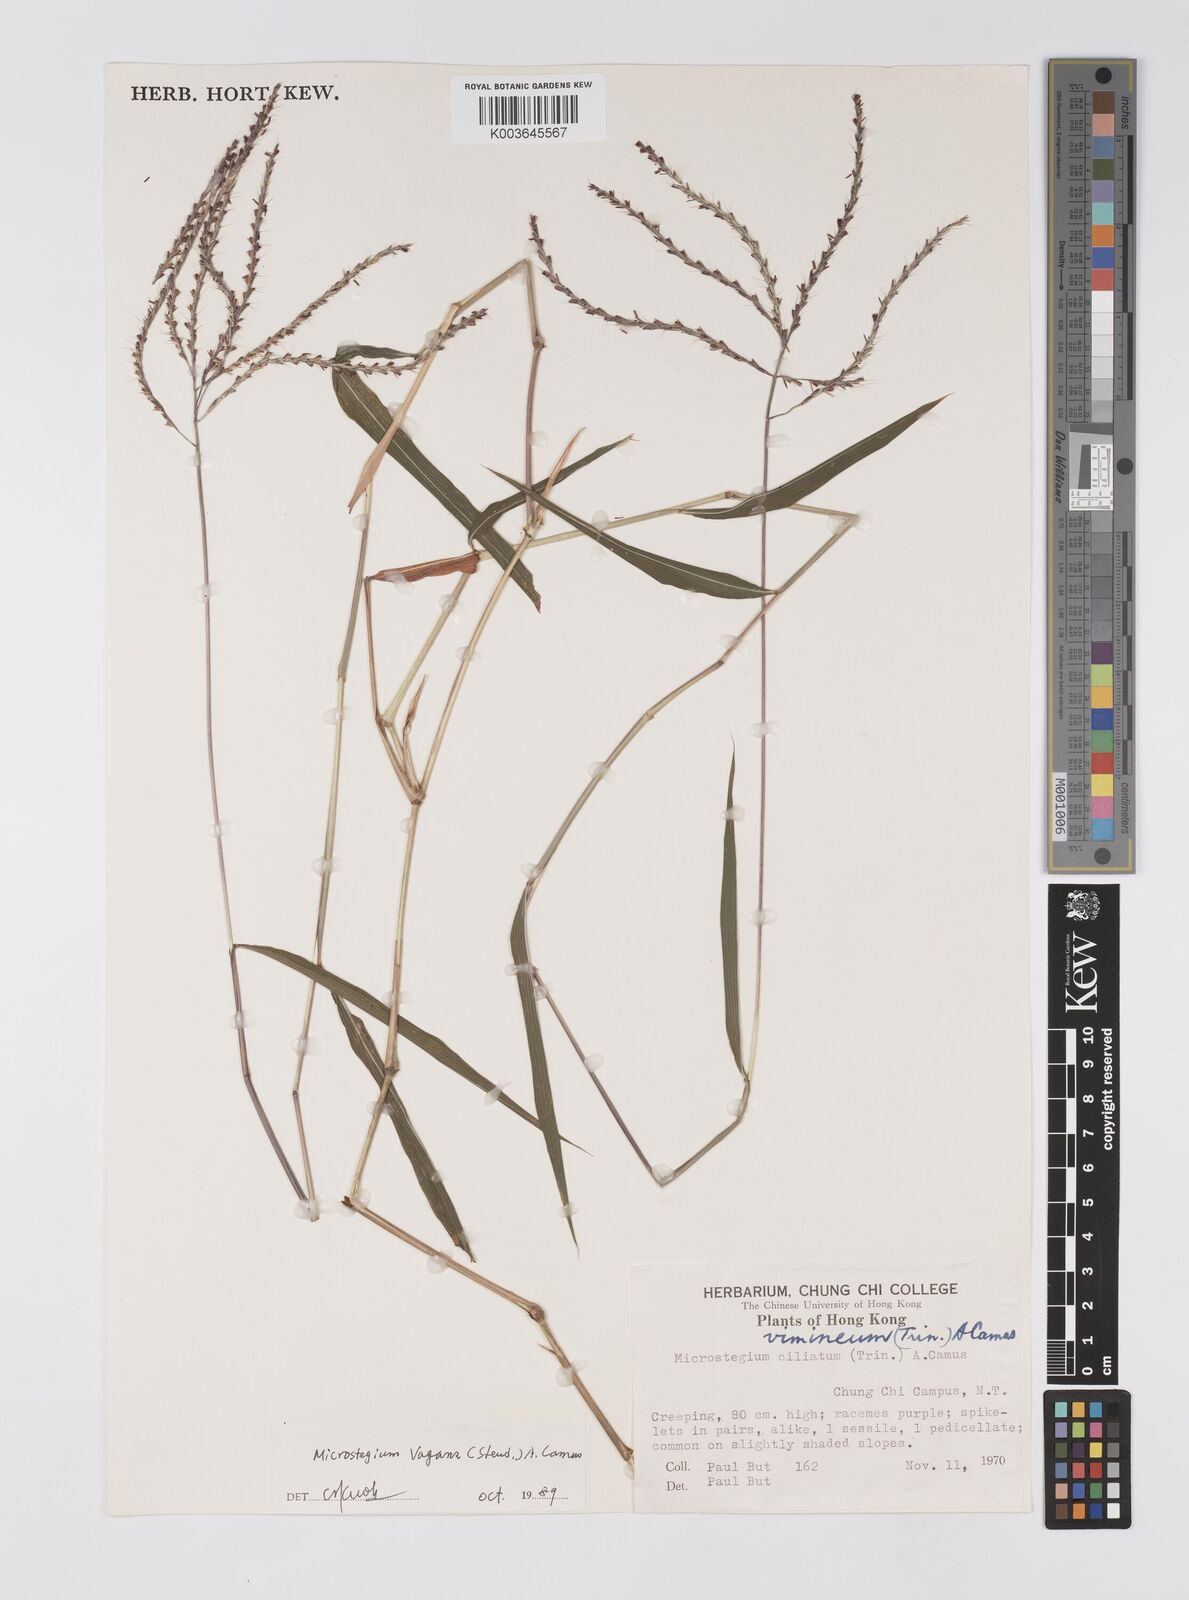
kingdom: Plantae
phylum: Tracheophyta
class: Liliopsida
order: Poales
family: Poaceae
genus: Microstegium
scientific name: Microstegium fasciculatum
